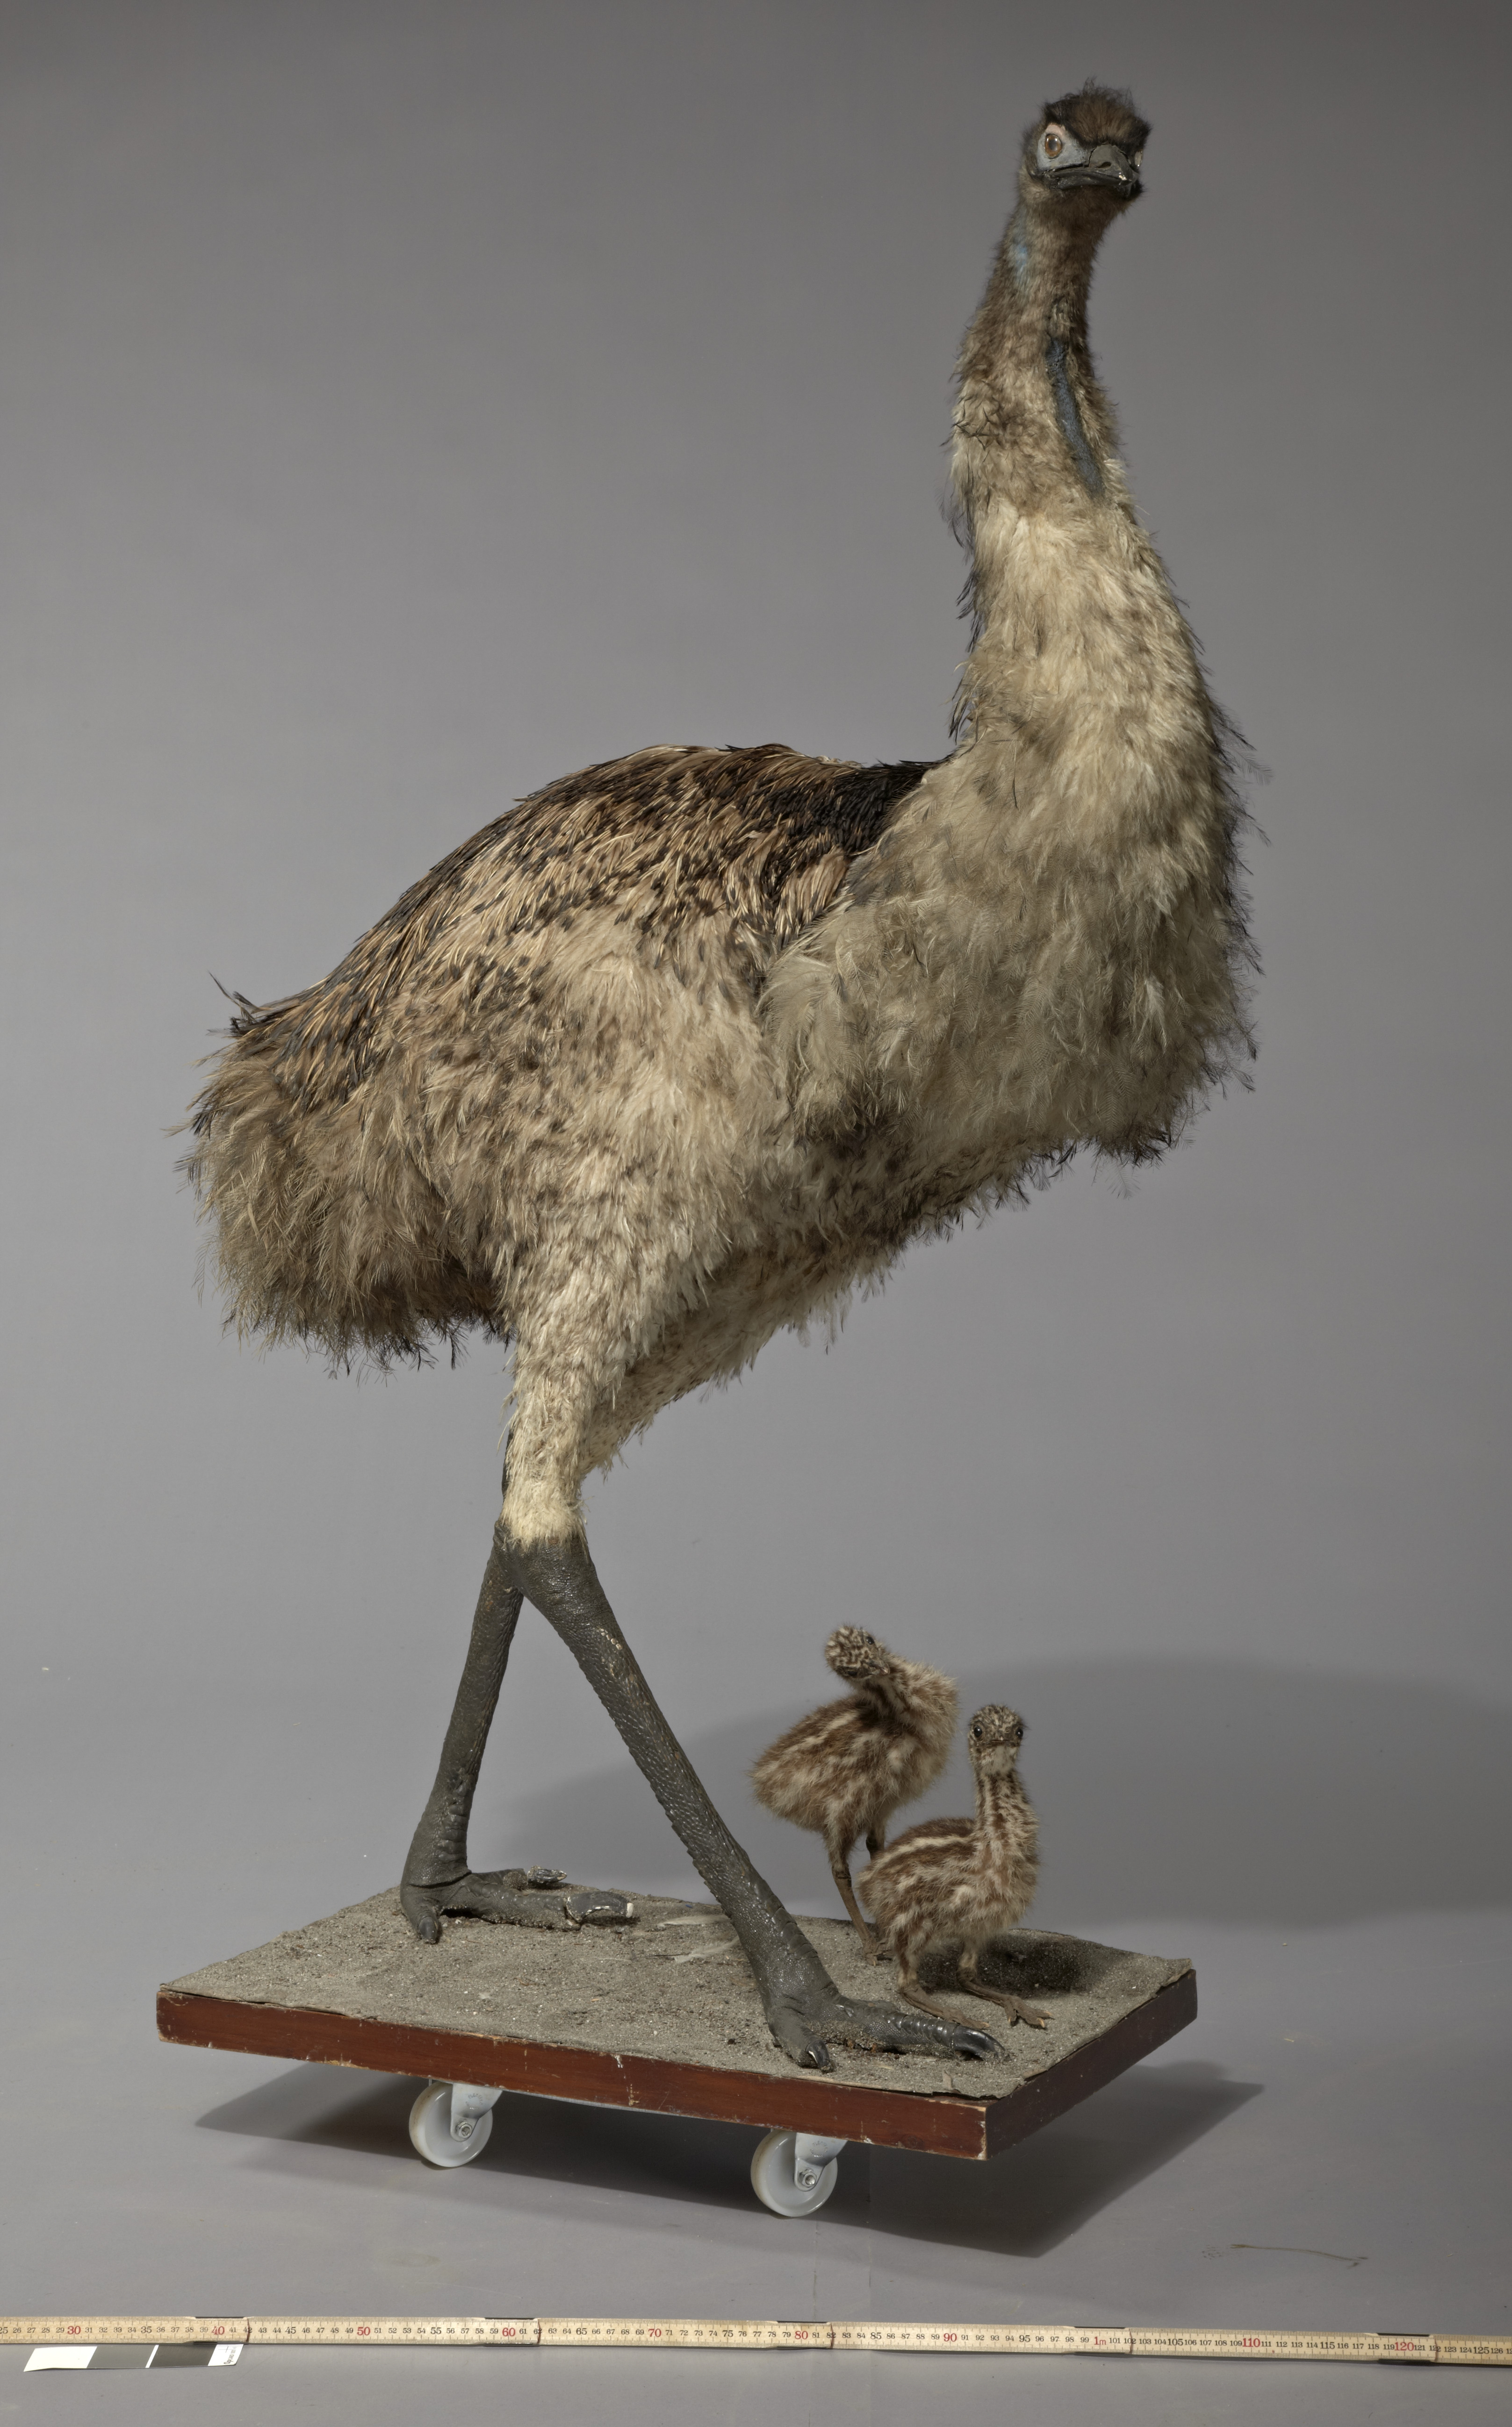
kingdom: Animalia
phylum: Chordata
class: Aves
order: Casuariiformes
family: Dromaiidae
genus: Dromaius
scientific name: Dromaius novaehollandiae
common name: Emu
